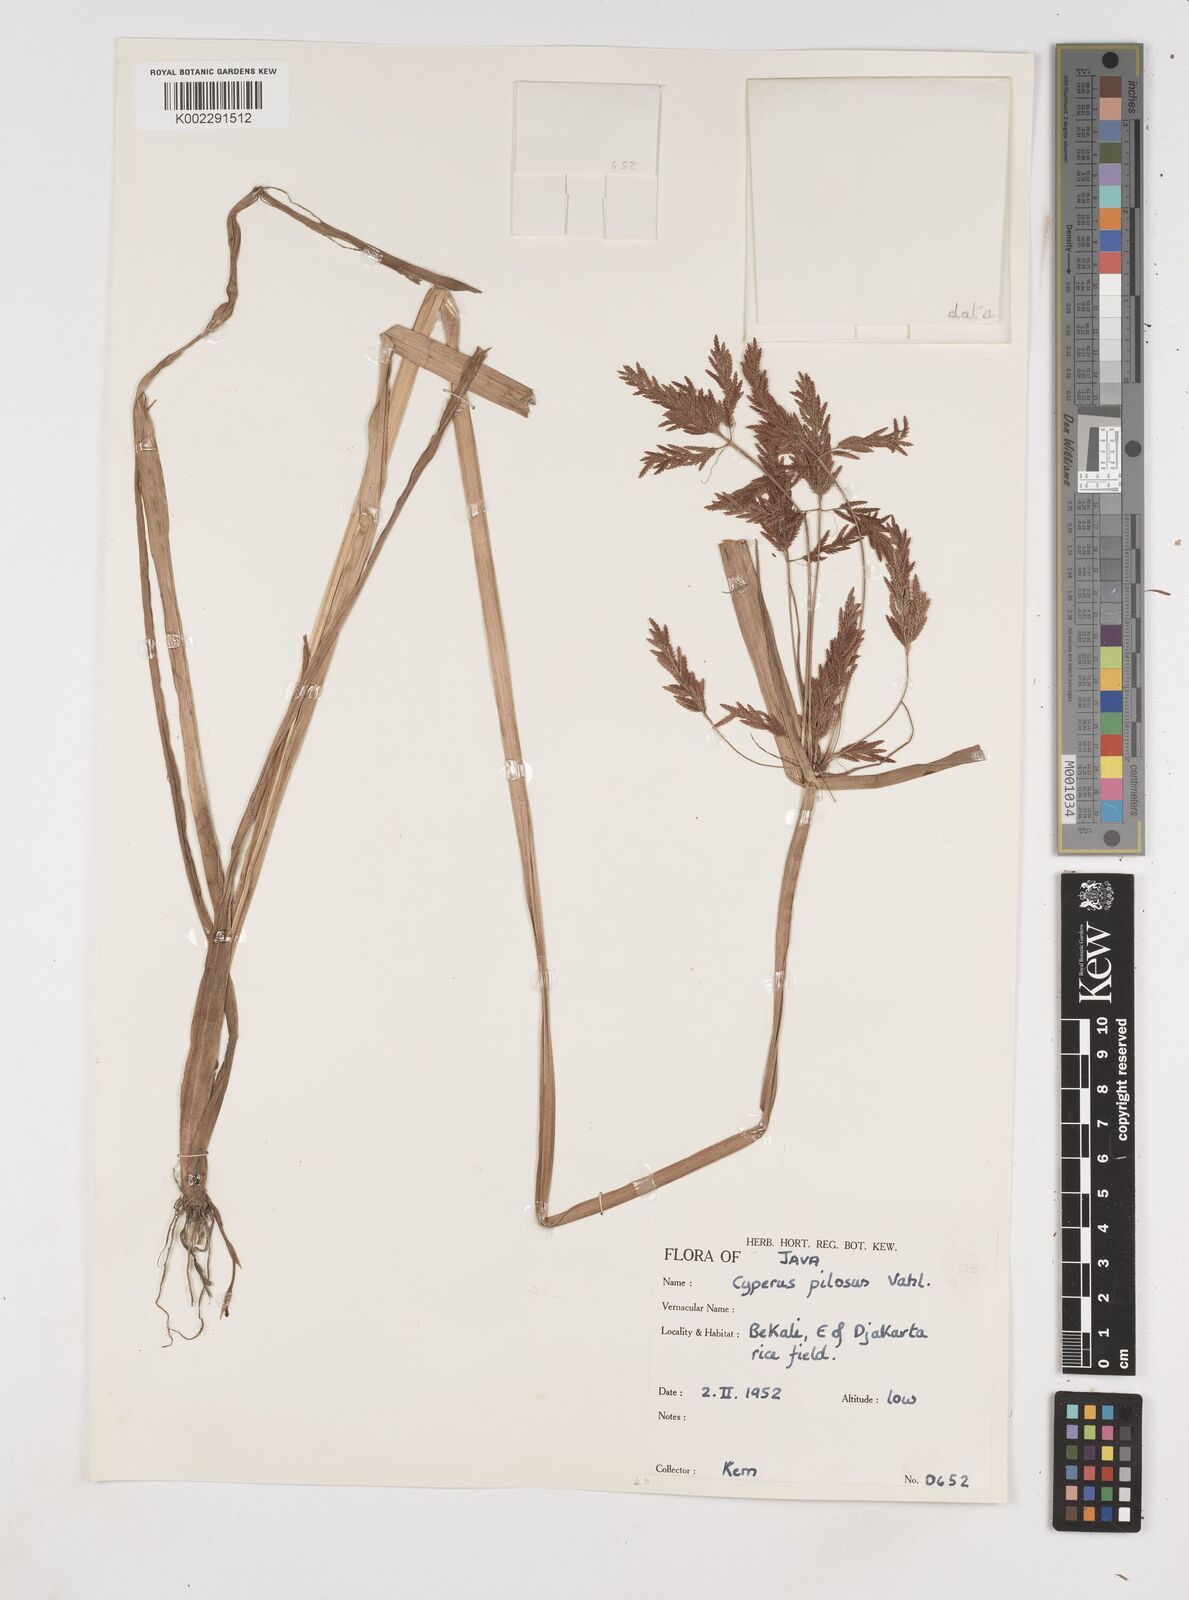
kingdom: Plantae
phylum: Tracheophyta
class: Liliopsida
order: Poales
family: Cyperaceae
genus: Cyperus
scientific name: Cyperus pilosus
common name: Fuzzy flatsedge
